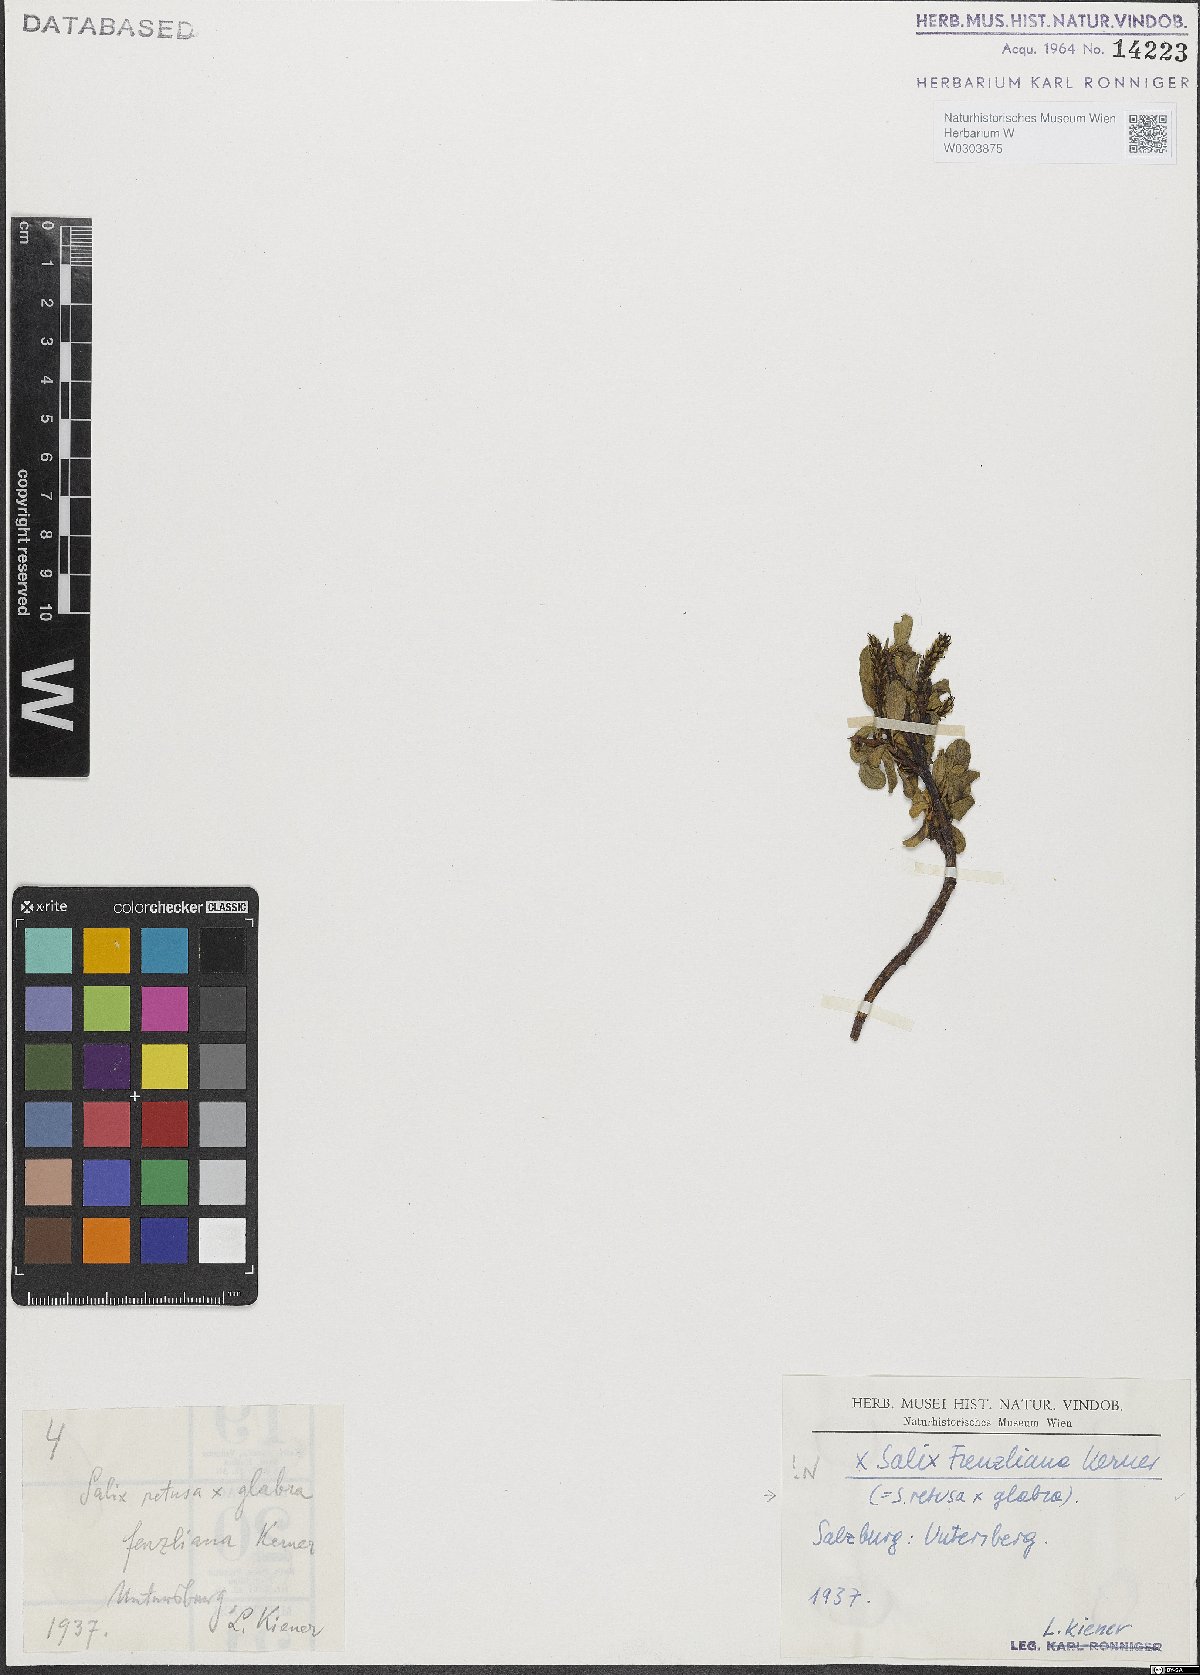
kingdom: Plantae
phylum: Tracheophyta
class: Magnoliopsida
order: Malpighiales
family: Salicaceae
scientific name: Salicaceae
